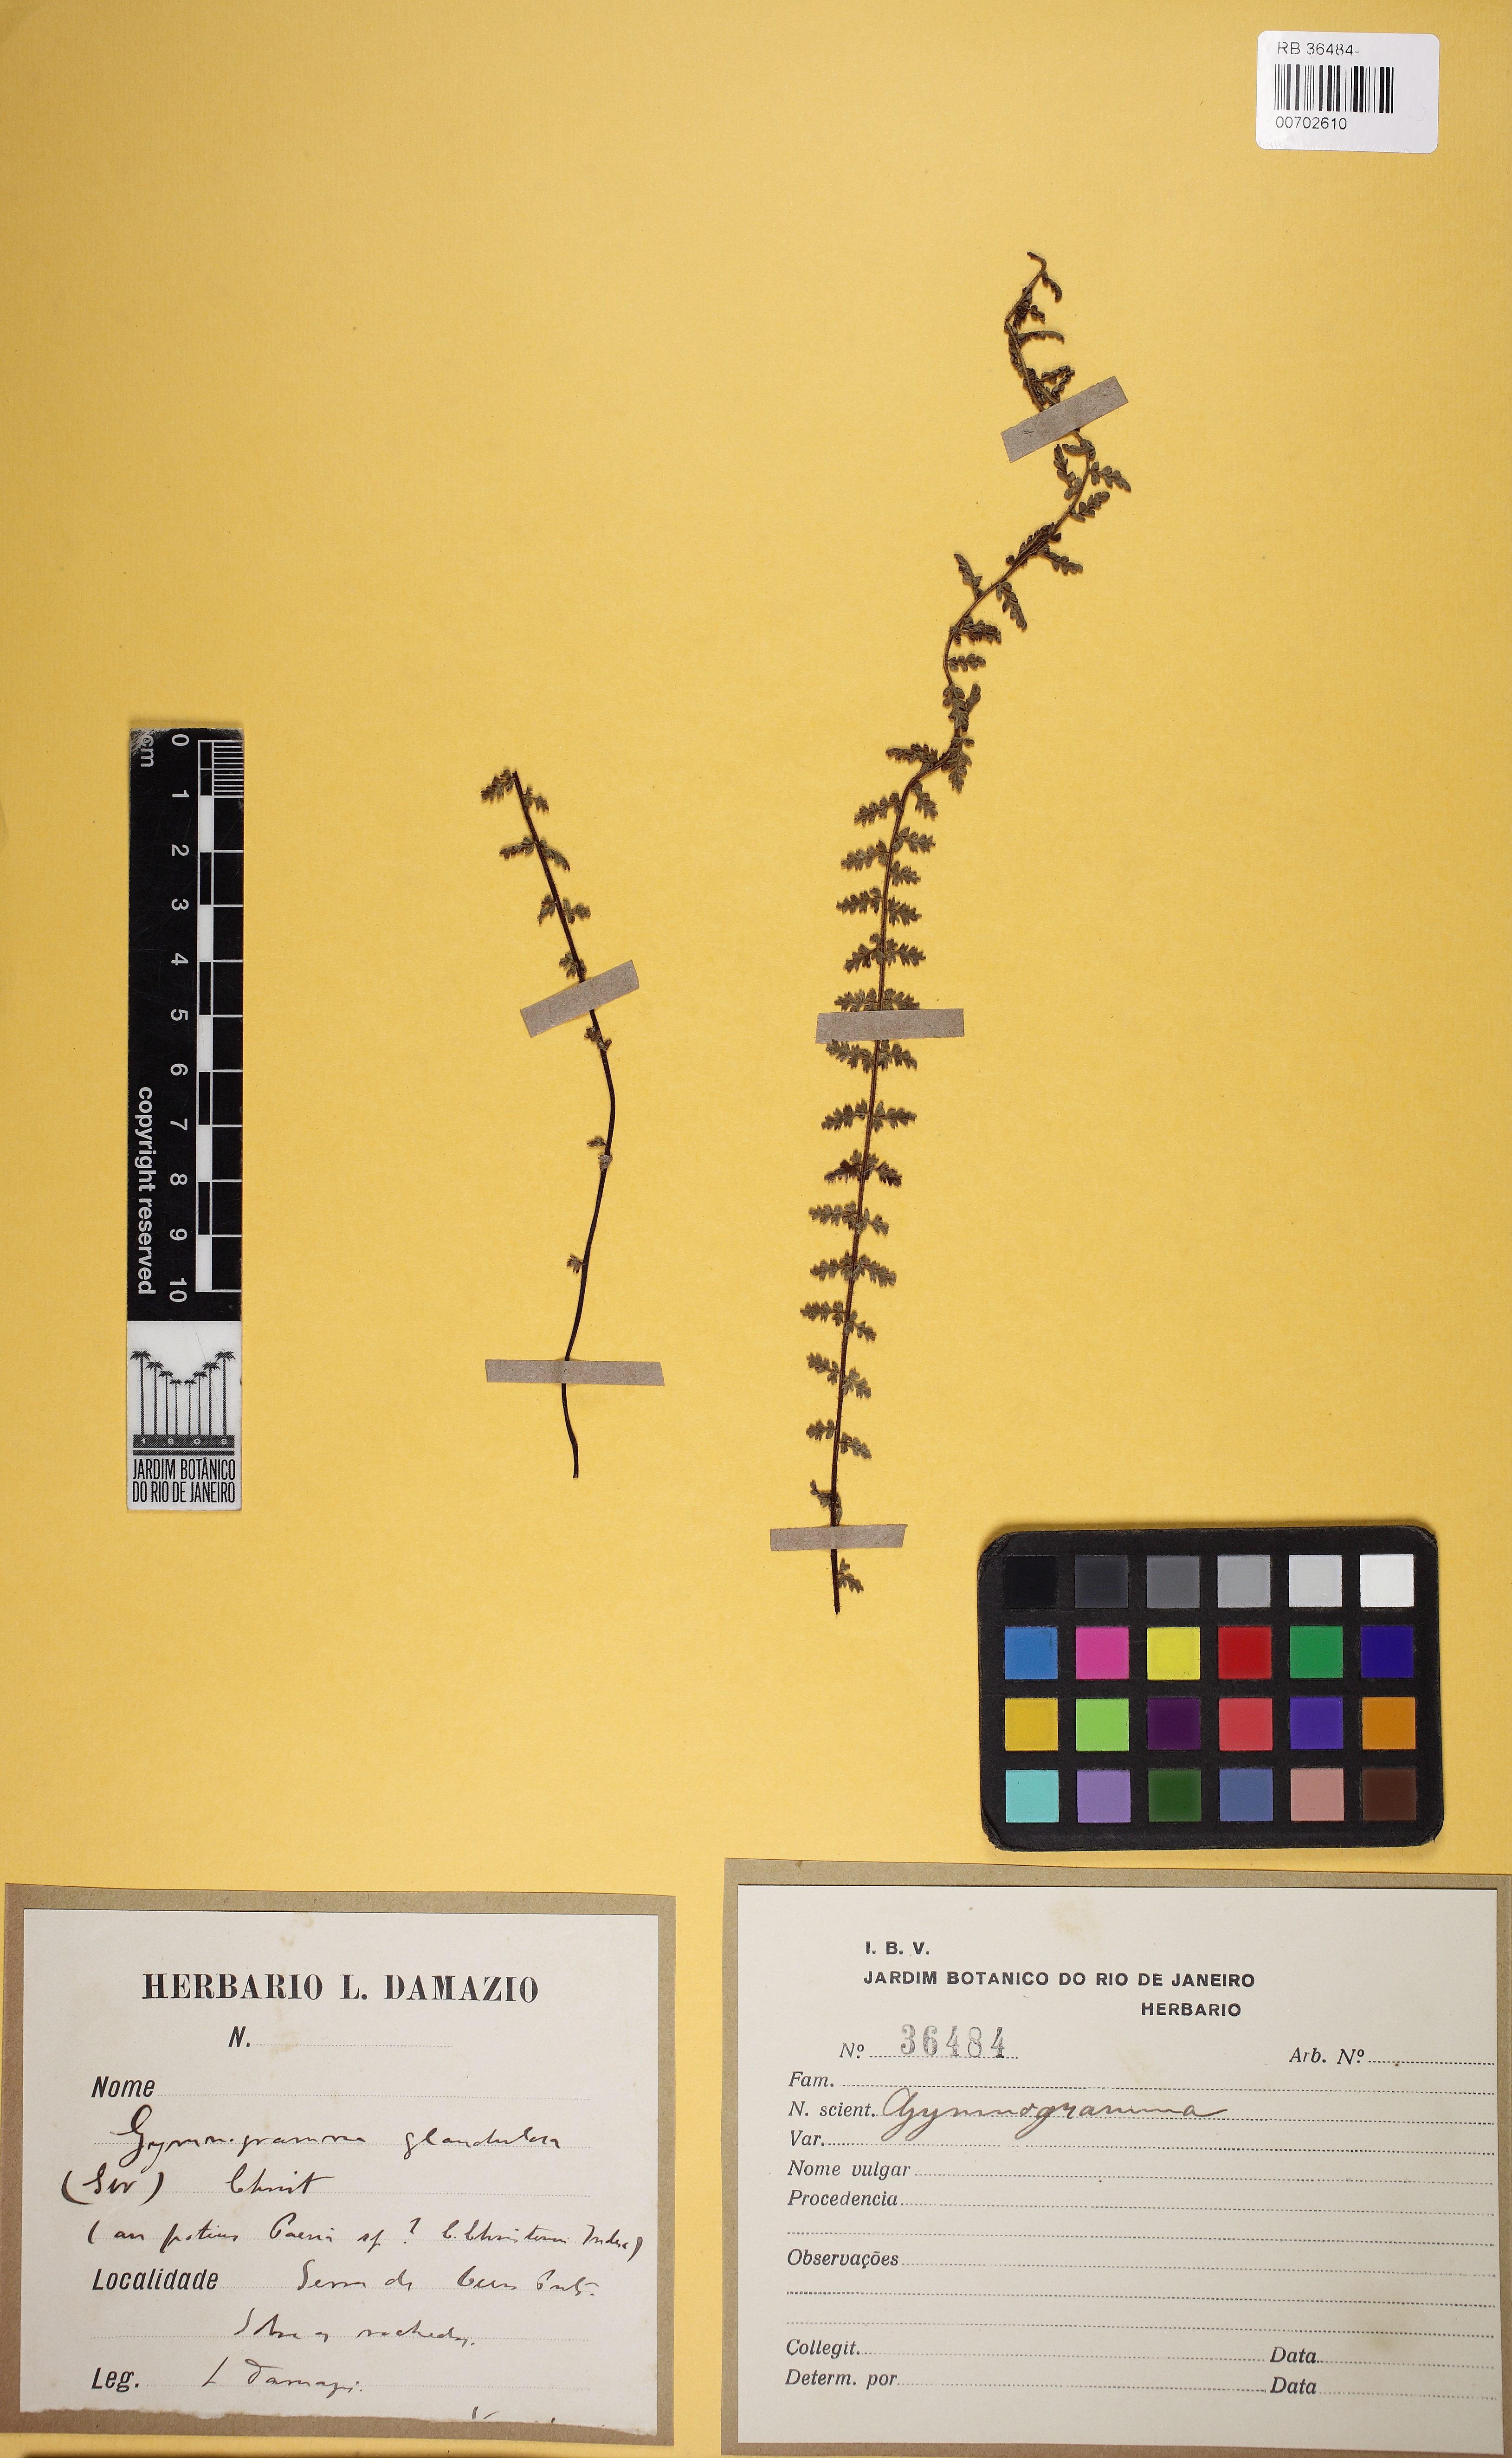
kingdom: Plantae
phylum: Tracheophyta
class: Polypodiopsida
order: Polypodiales
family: Pteridaceae
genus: Tryonia
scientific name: Tryonia sellowiana
